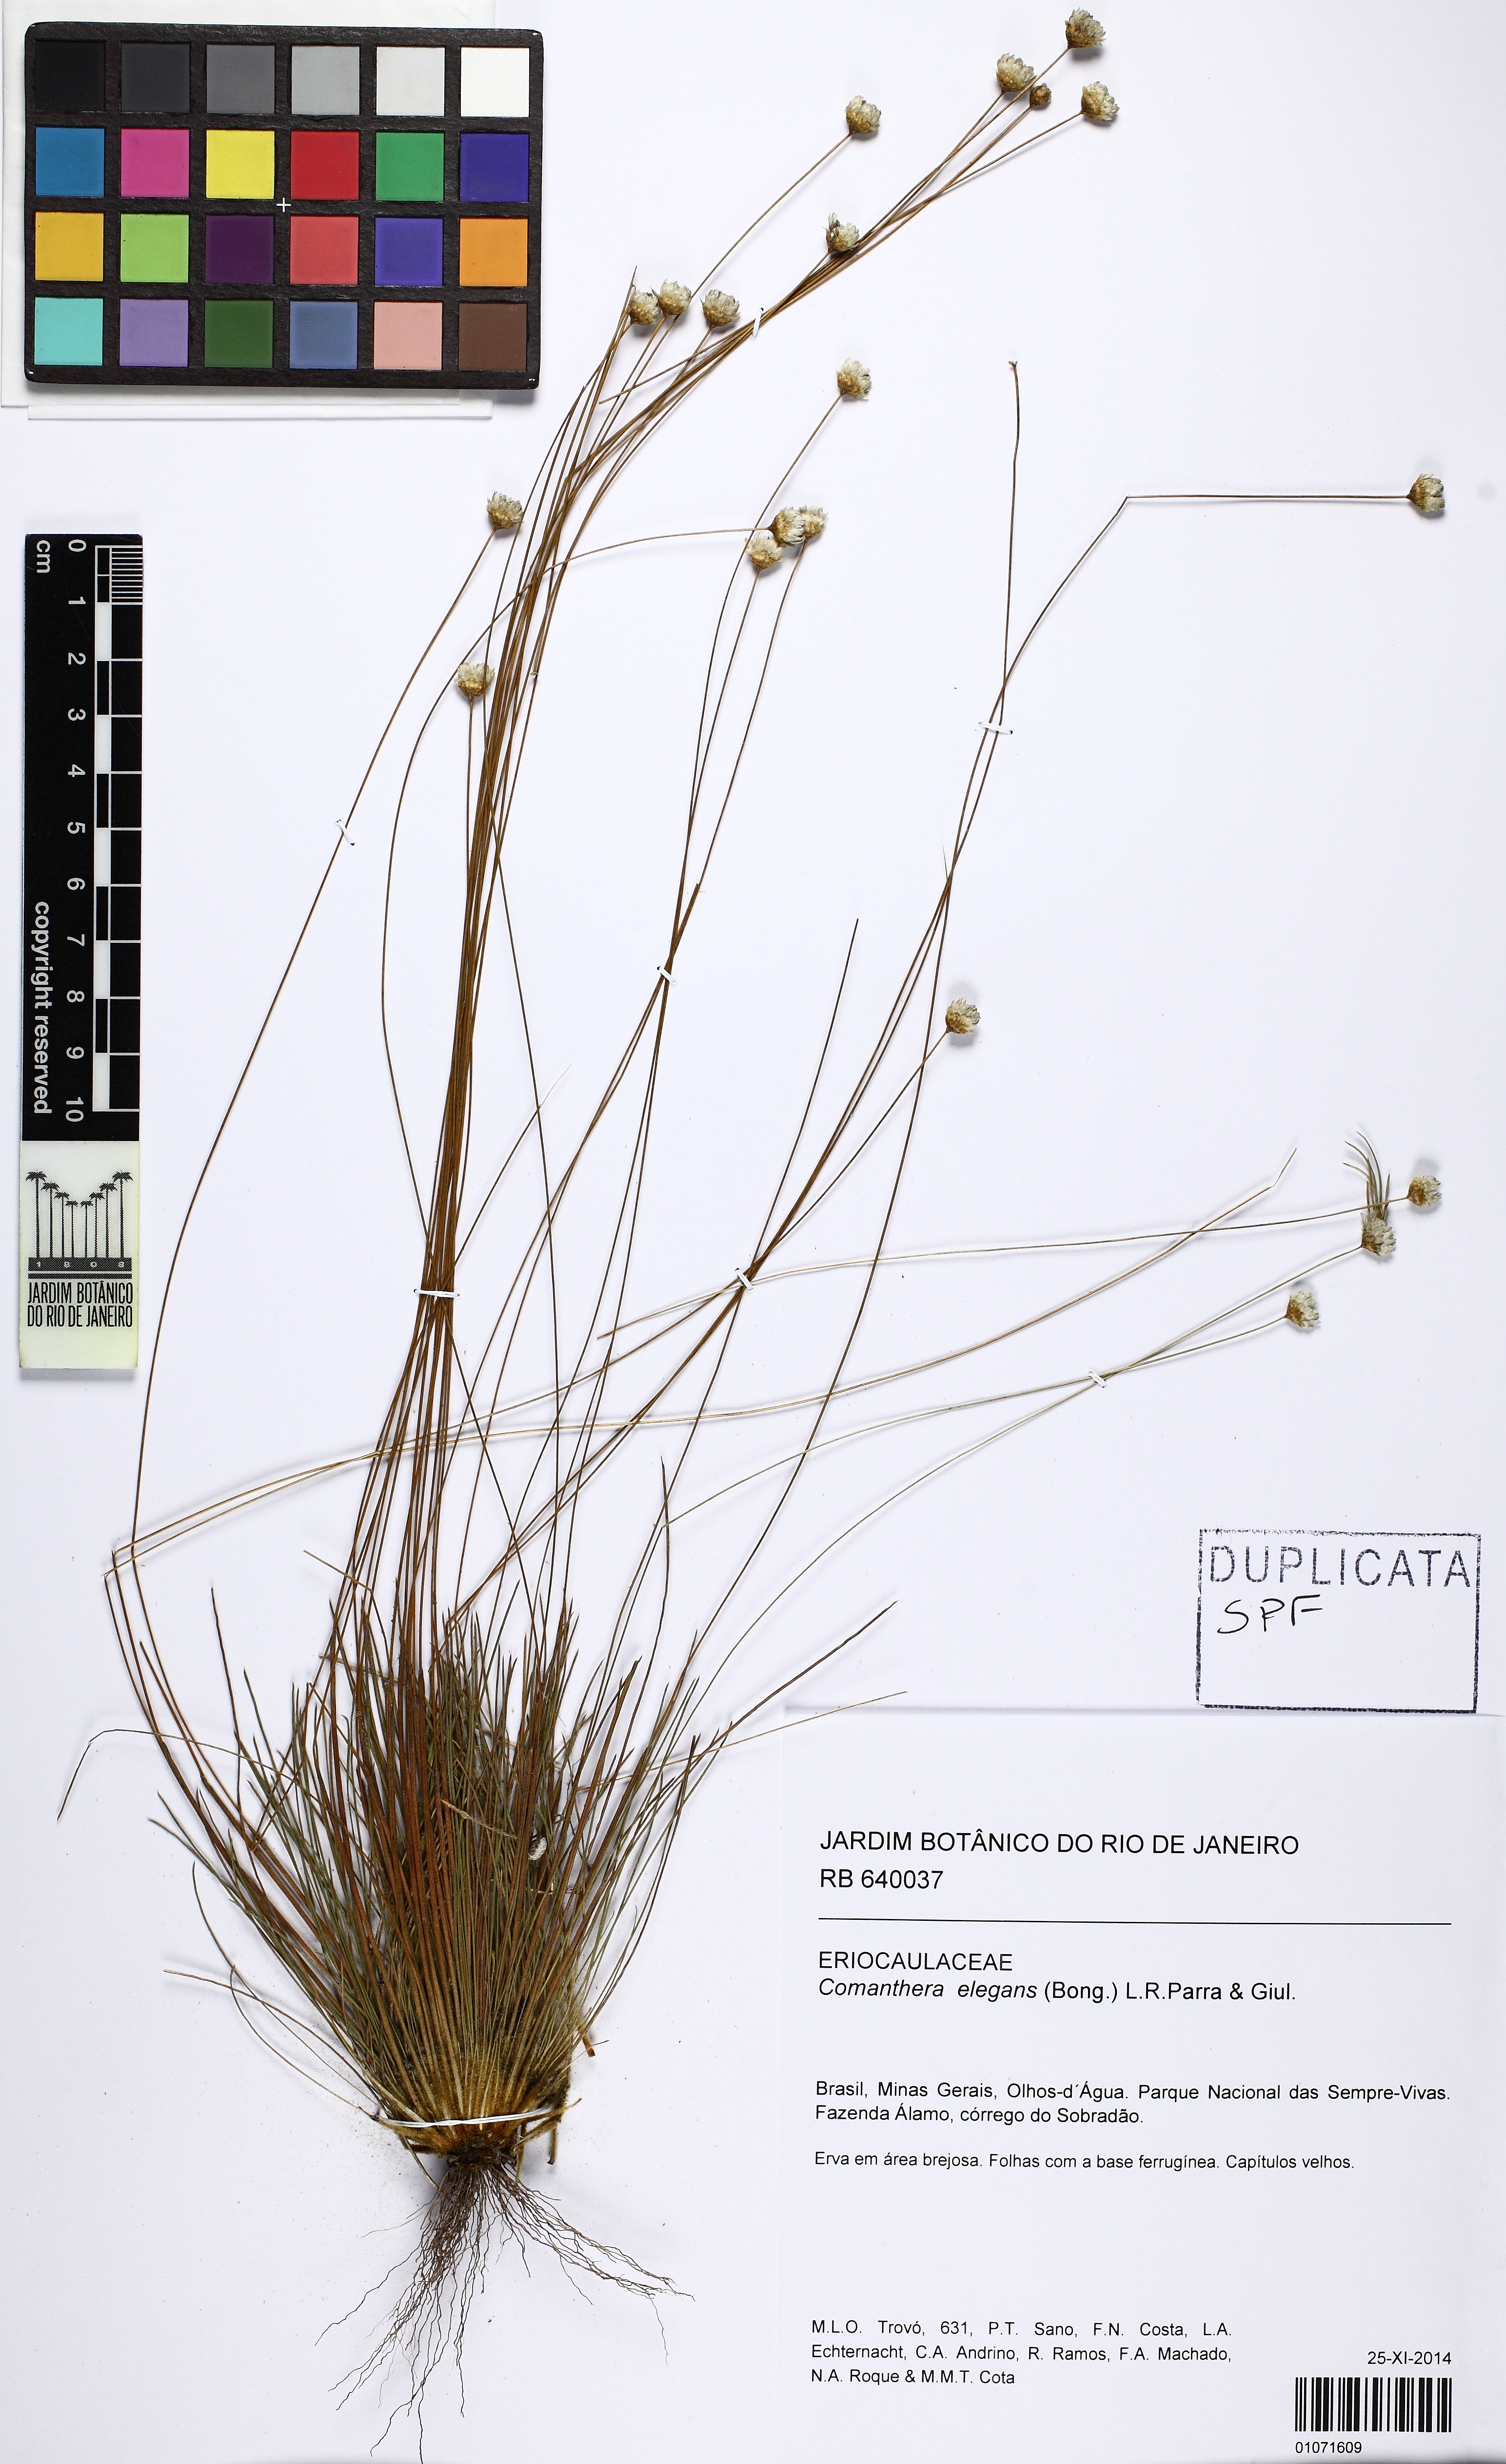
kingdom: Plantae
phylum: Tracheophyta
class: Liliopsida
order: Poales
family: Eriocaulaceae
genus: Comanthera
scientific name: Comanthera elegans
